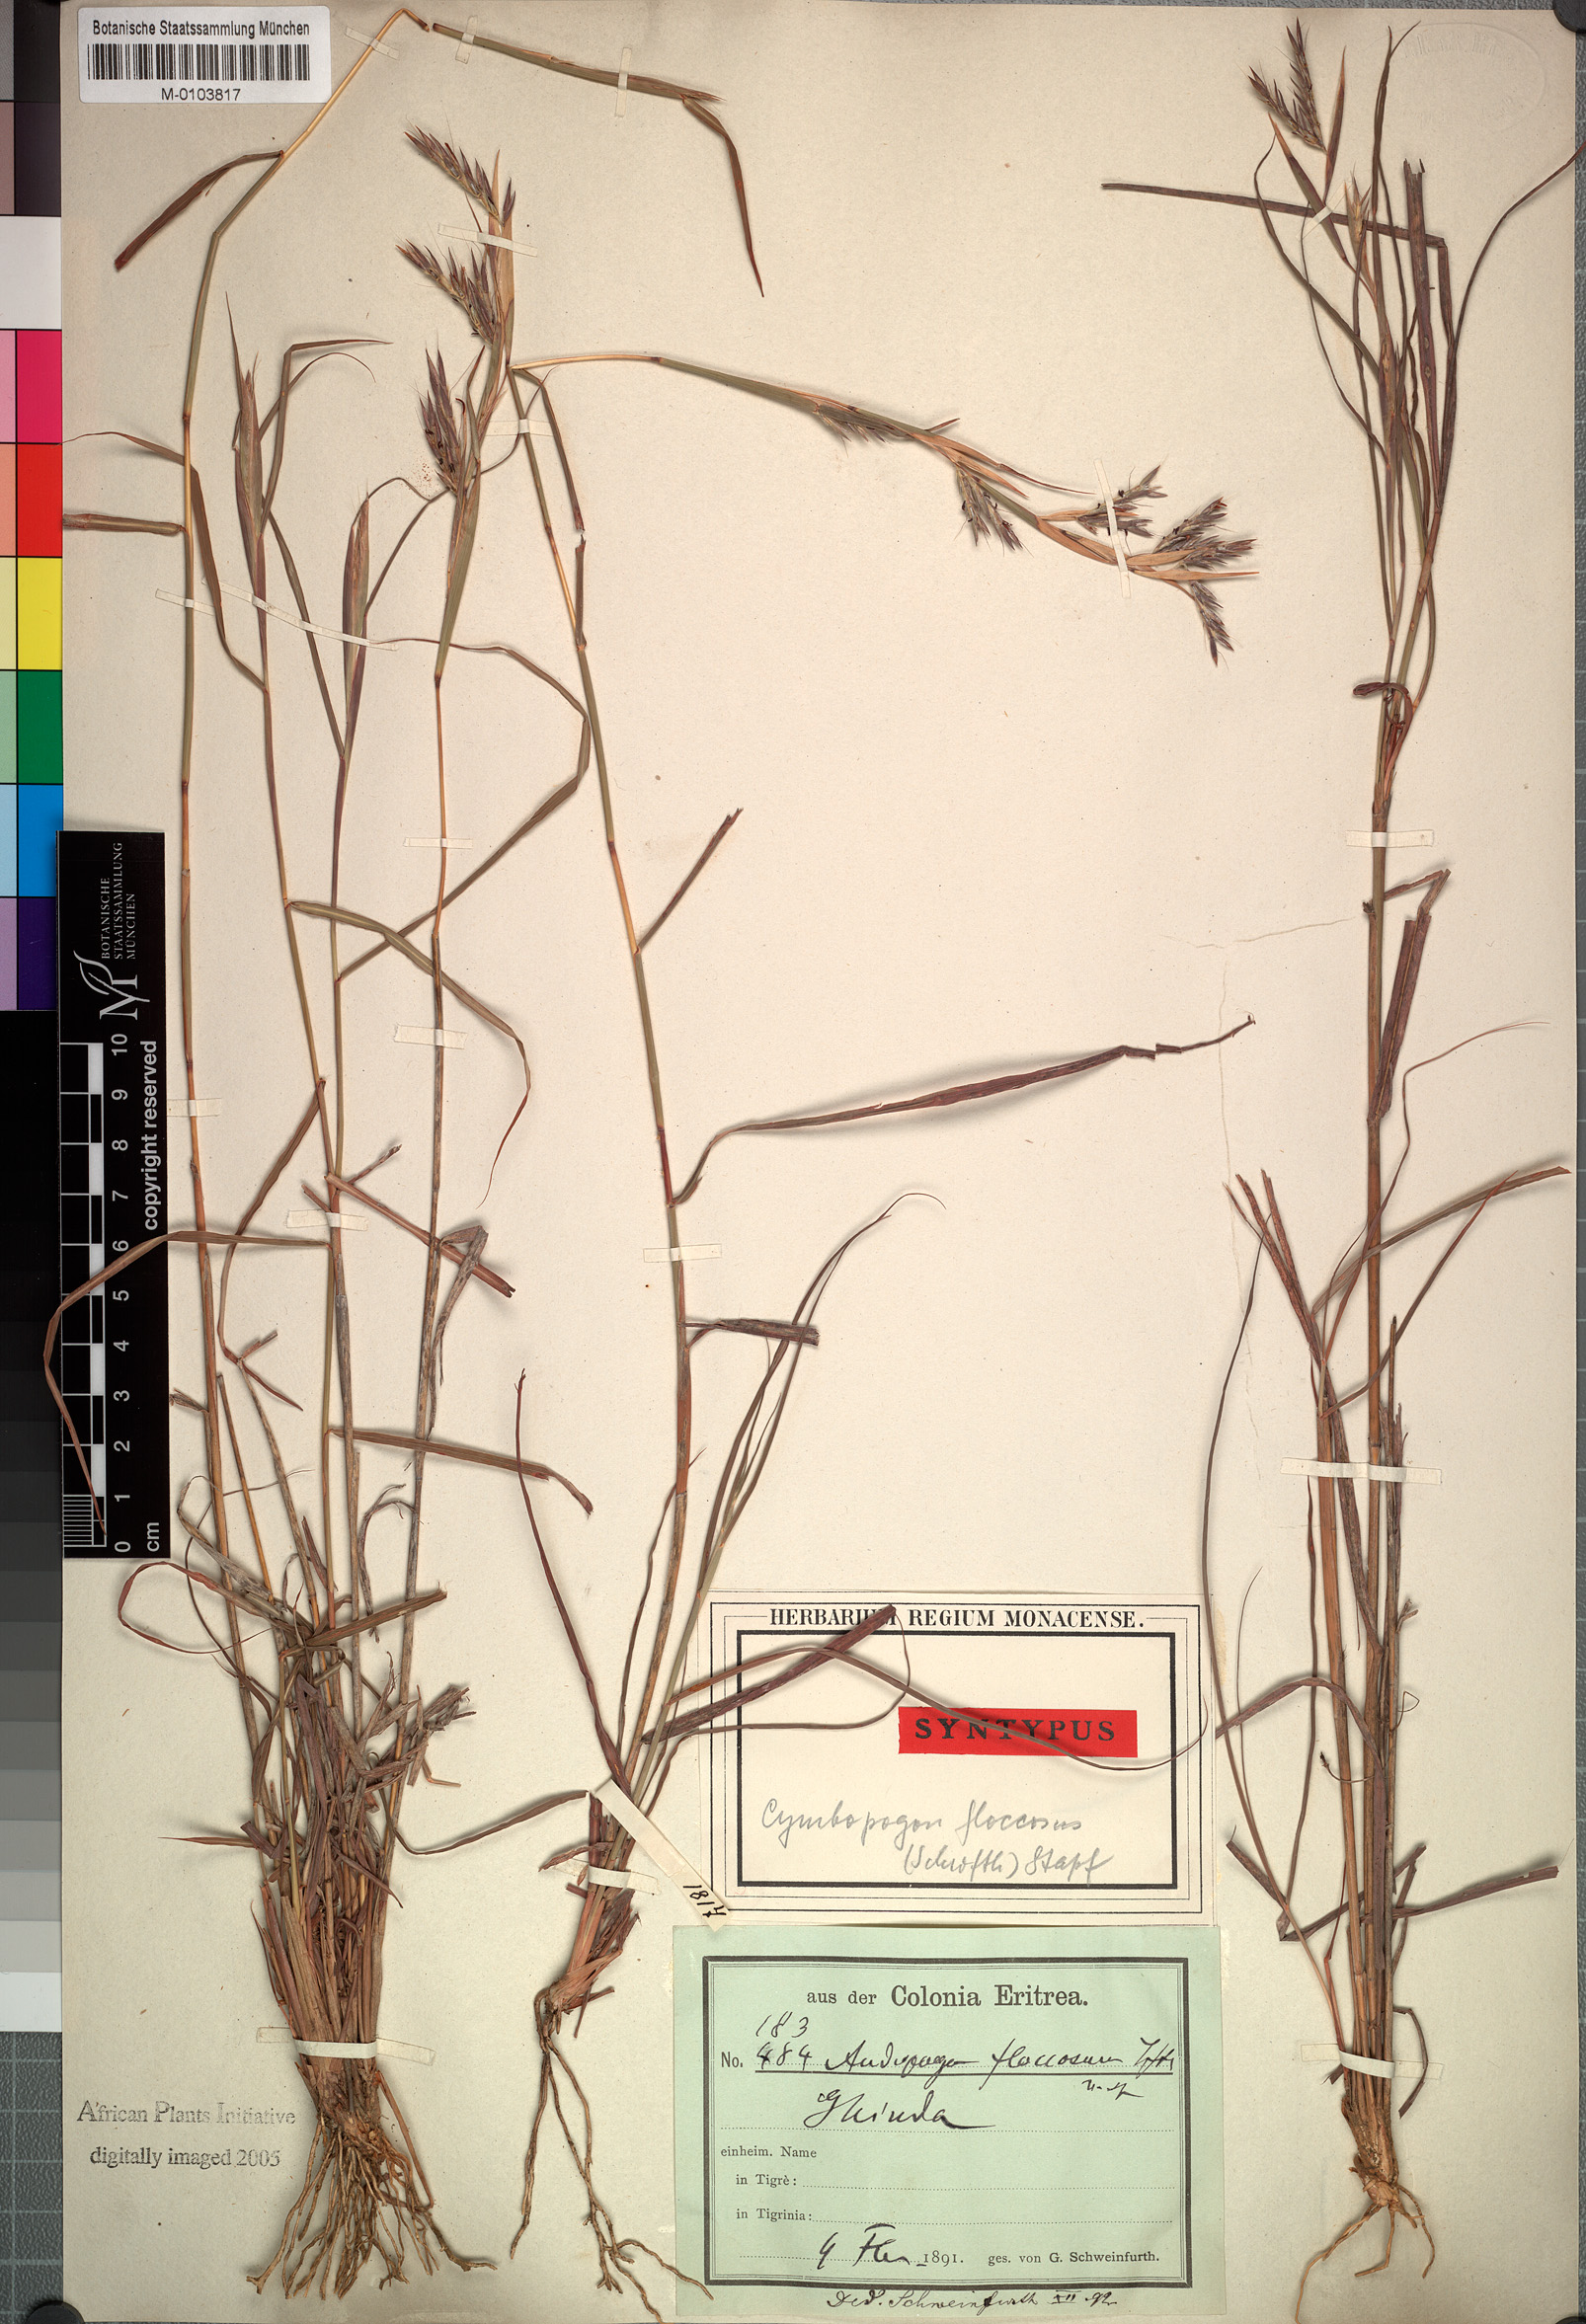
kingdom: Plantae
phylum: Tracheophyta
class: Liliopsida
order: Poales
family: Poaceae
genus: Cymbopogon
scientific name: Cymbopogon commutatus
